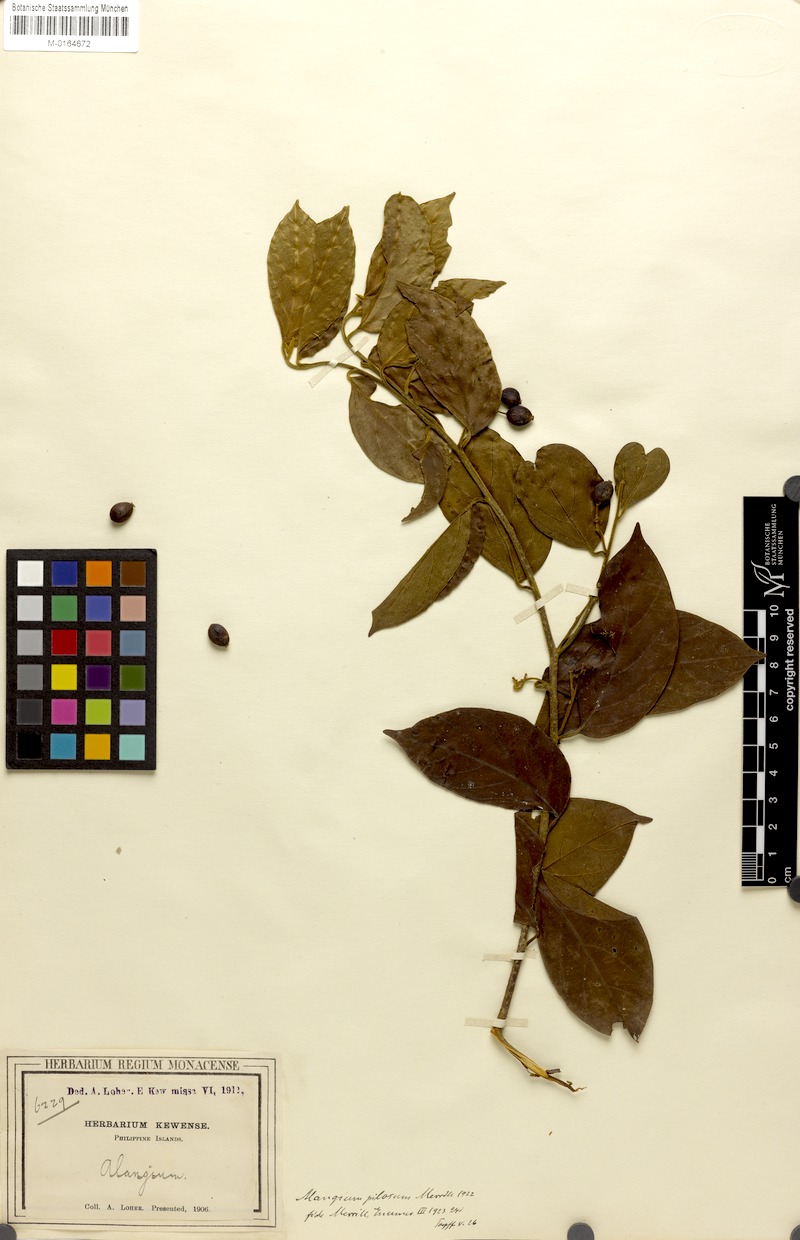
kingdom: Plantae
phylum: Tracheophyta
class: Magnoliopsida
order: Cornales
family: Cornaceae
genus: Alangium
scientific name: Alangium pilosum
